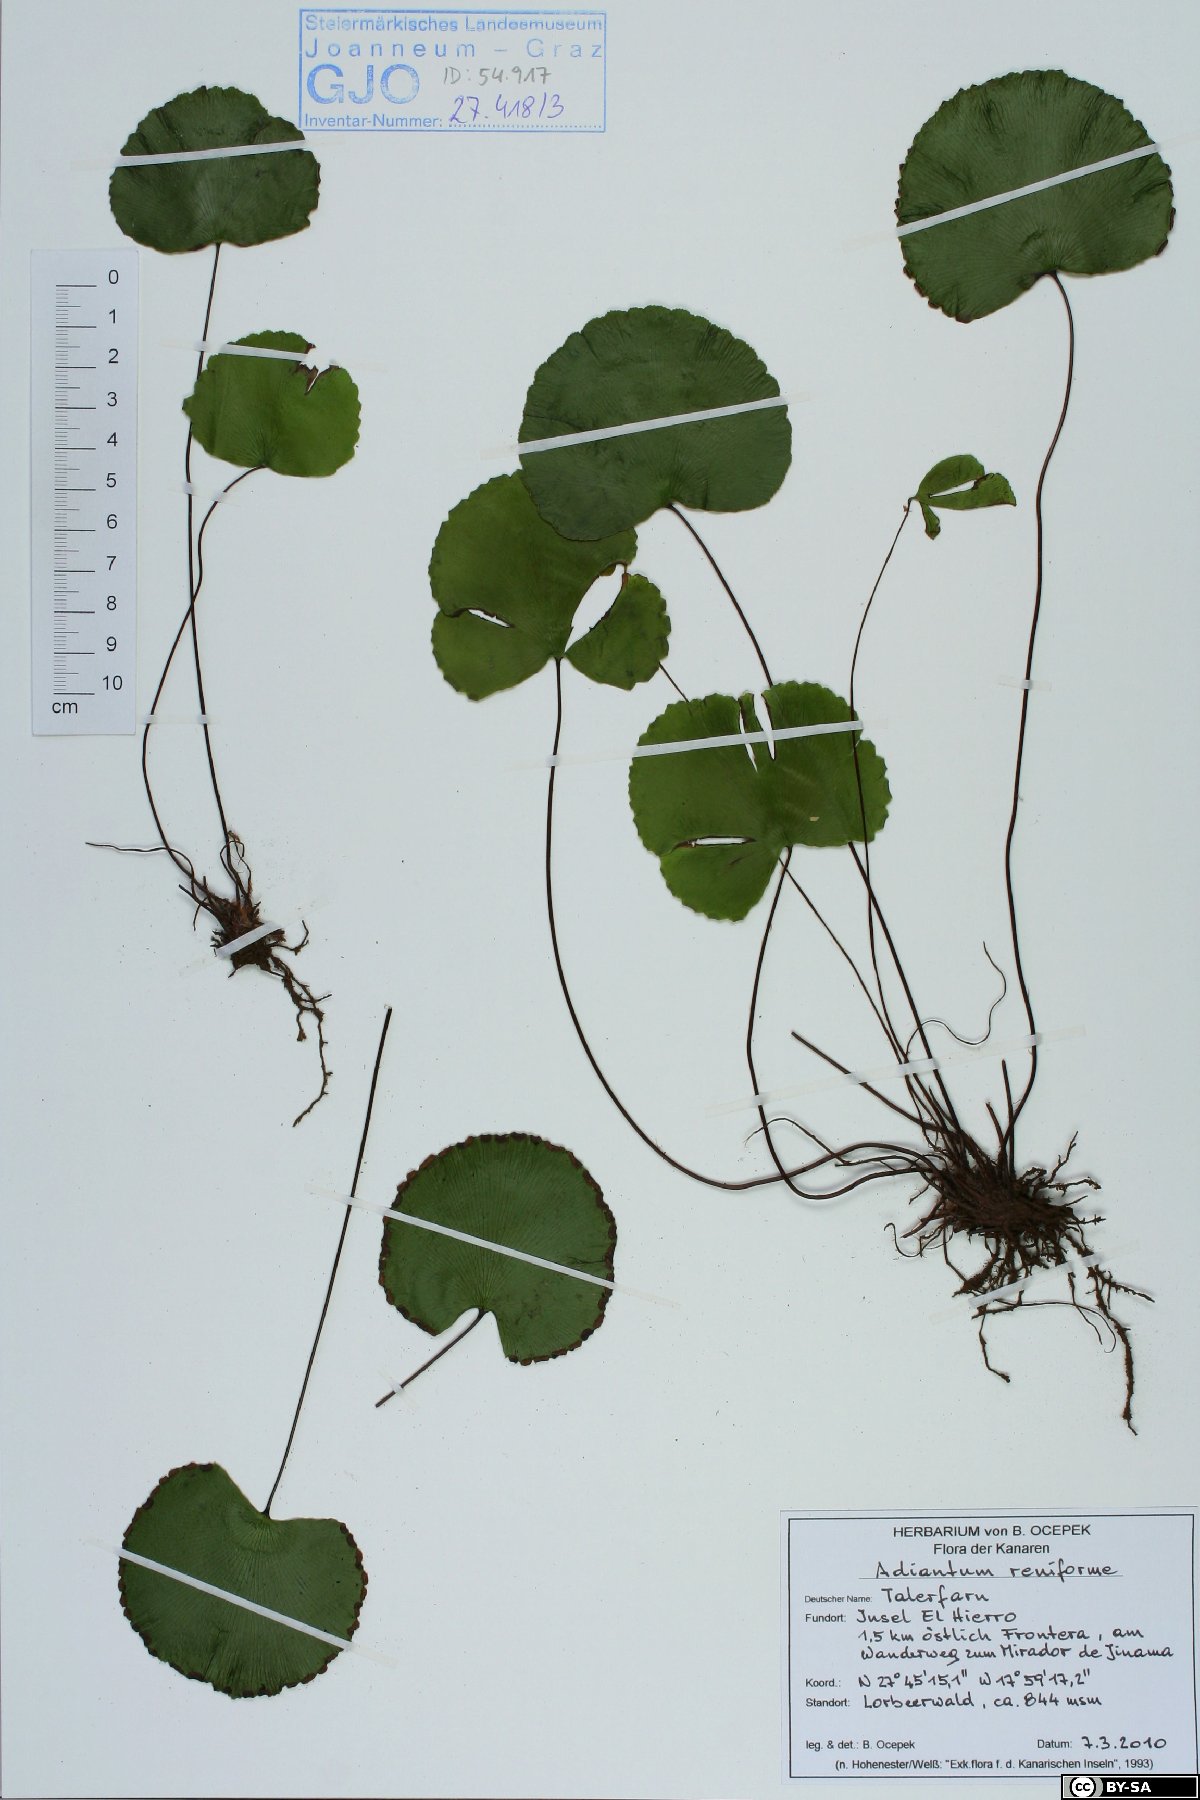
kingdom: Plantae
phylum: Tracheophyta
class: Polypodiopsida
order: Polypodiales
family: Pteridaceae
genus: Adiantum
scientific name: Adiantum reniforme
